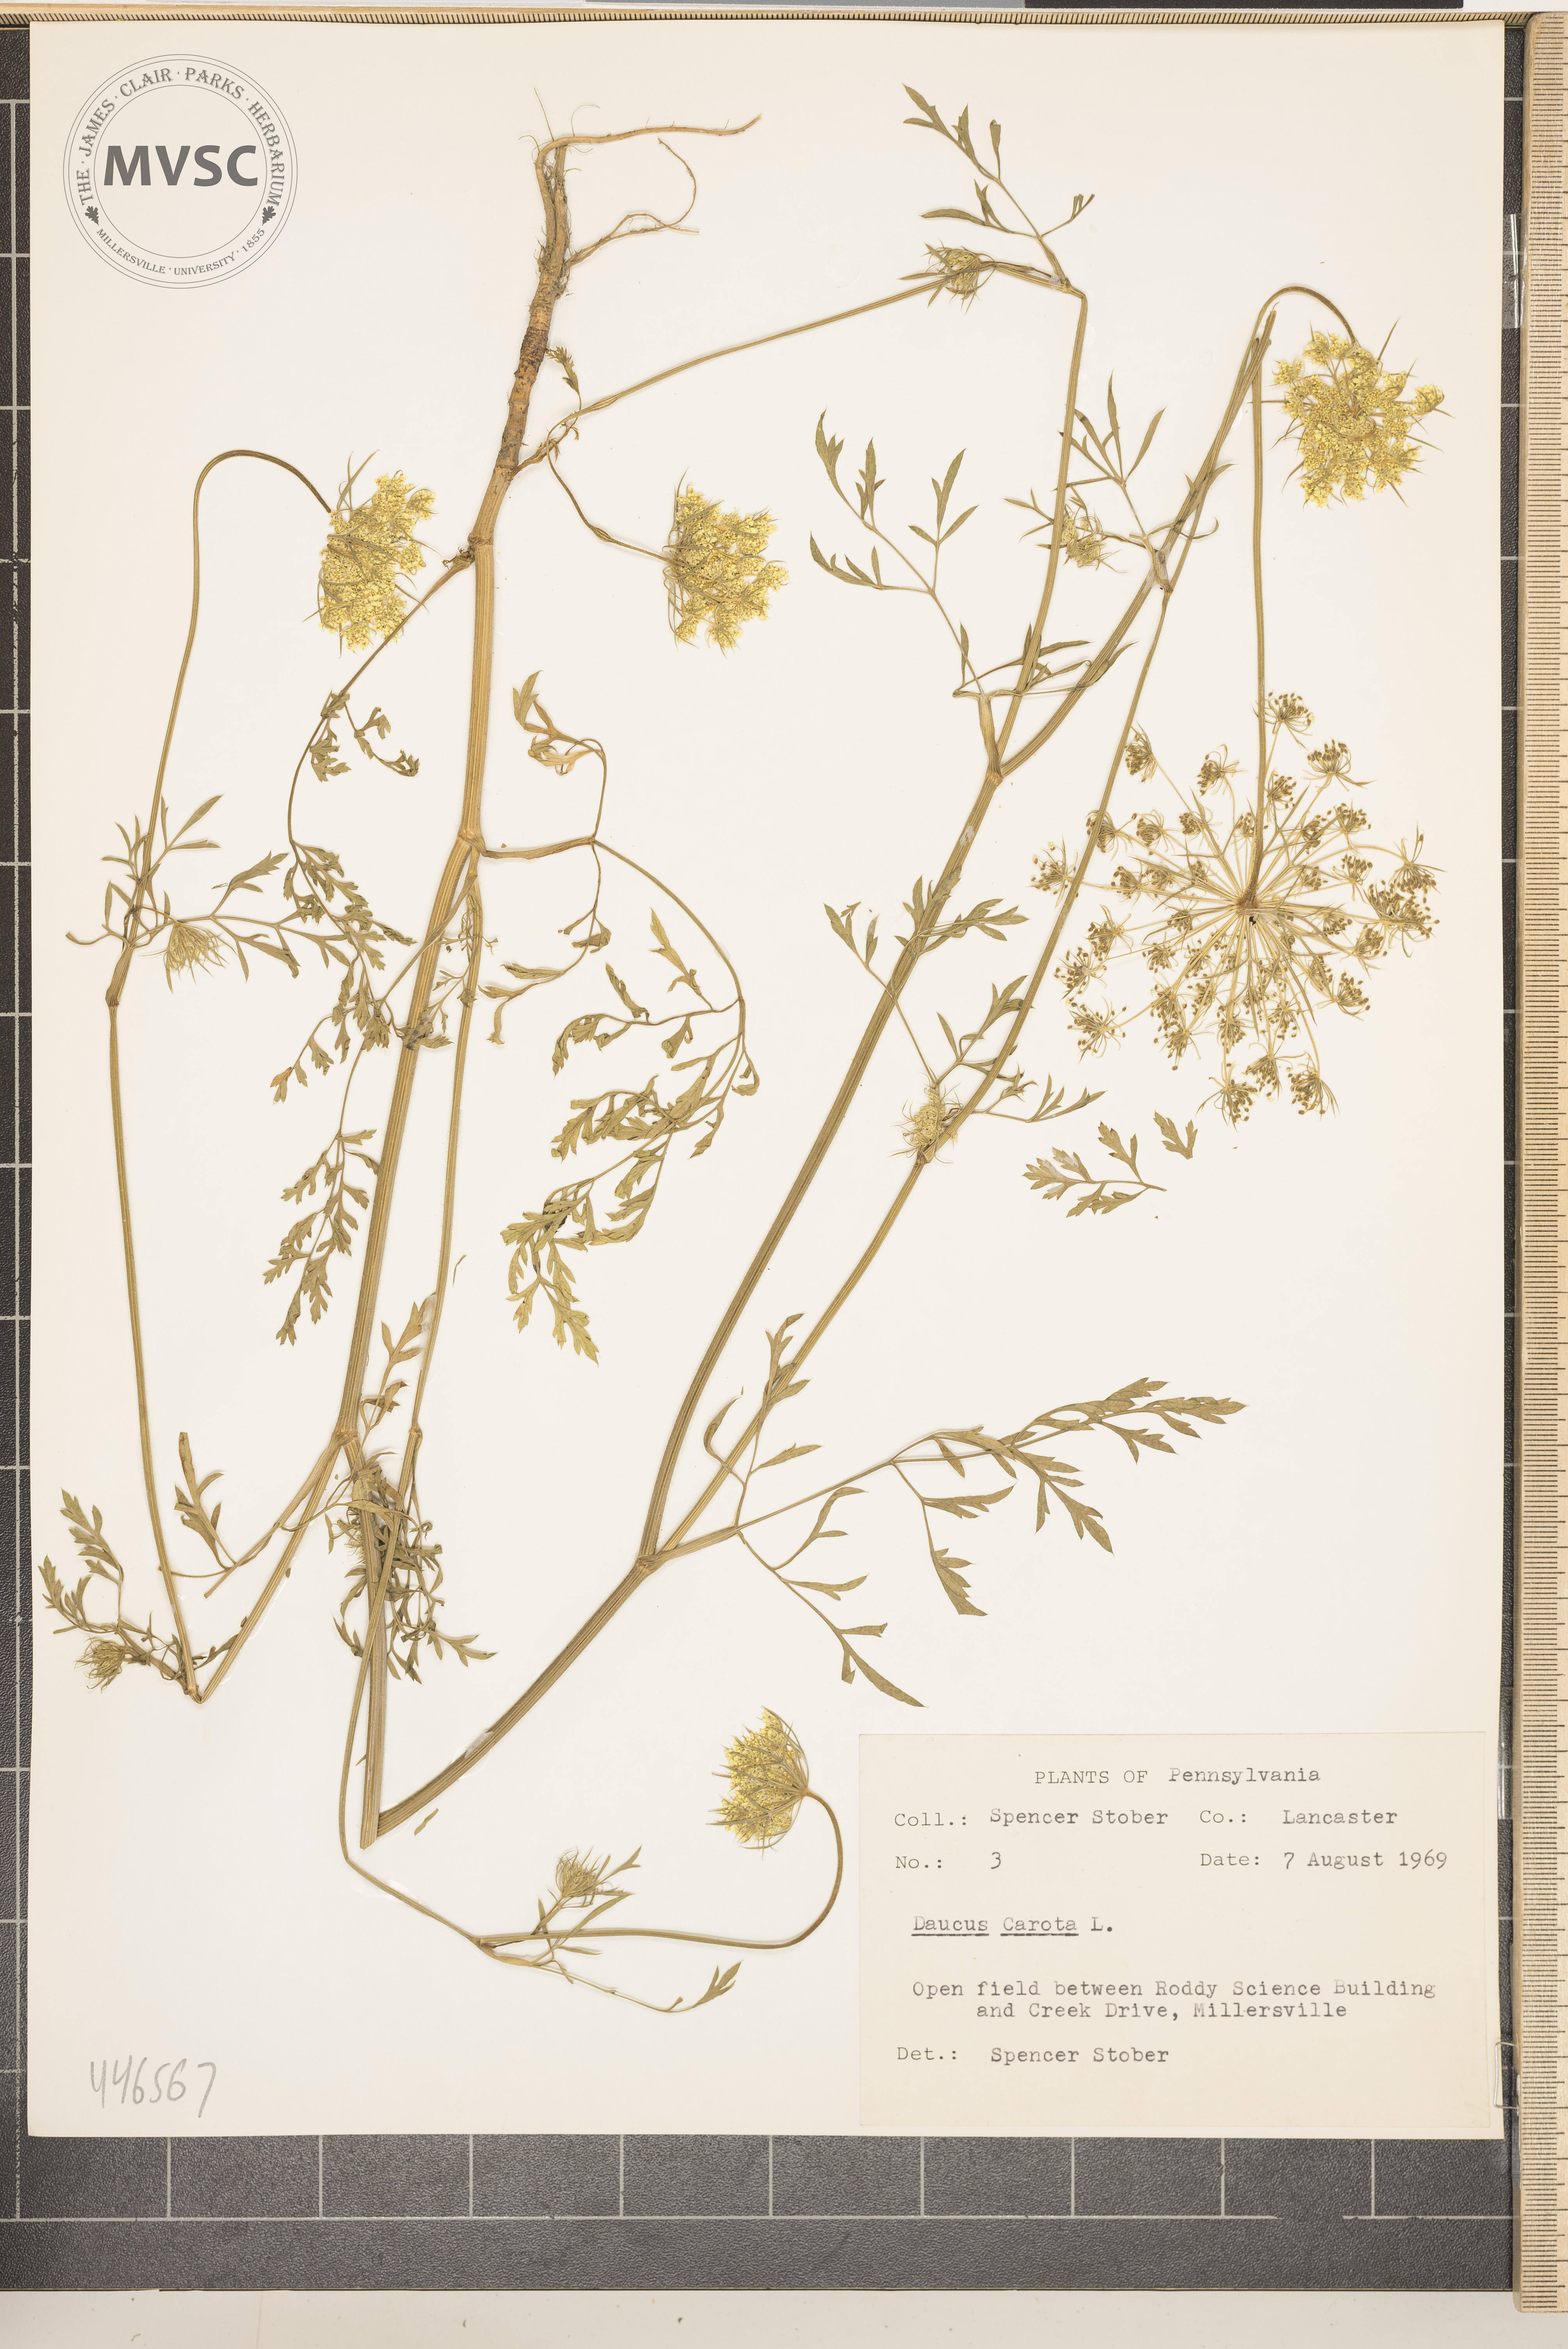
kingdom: Plantae
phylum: Tracheophyta
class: Magnoliopsida
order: Apiales
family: Apiaceae
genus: Daucus
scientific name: Daucus carota
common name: Wild carrot
